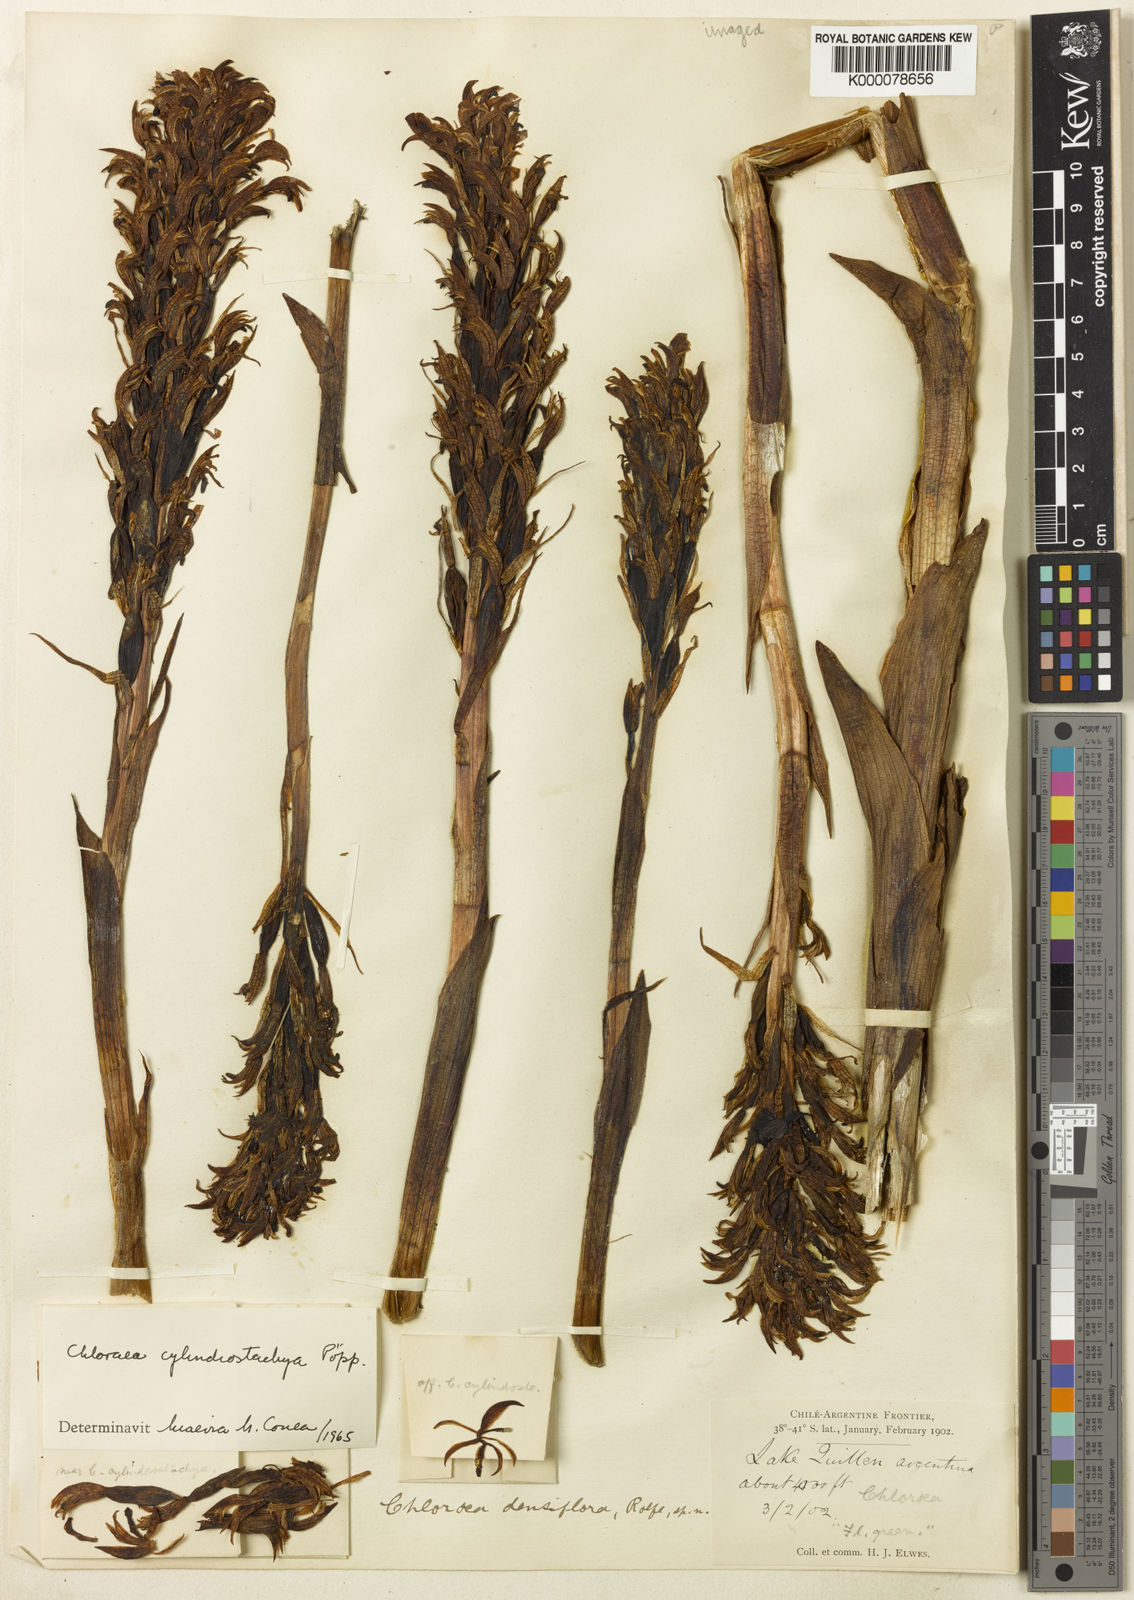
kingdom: Plantae
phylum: Tracheophyta
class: Liliopsida
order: Asparagales
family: Orchidaceae
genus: Chloraea
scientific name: Chloraea cylindrostachya
